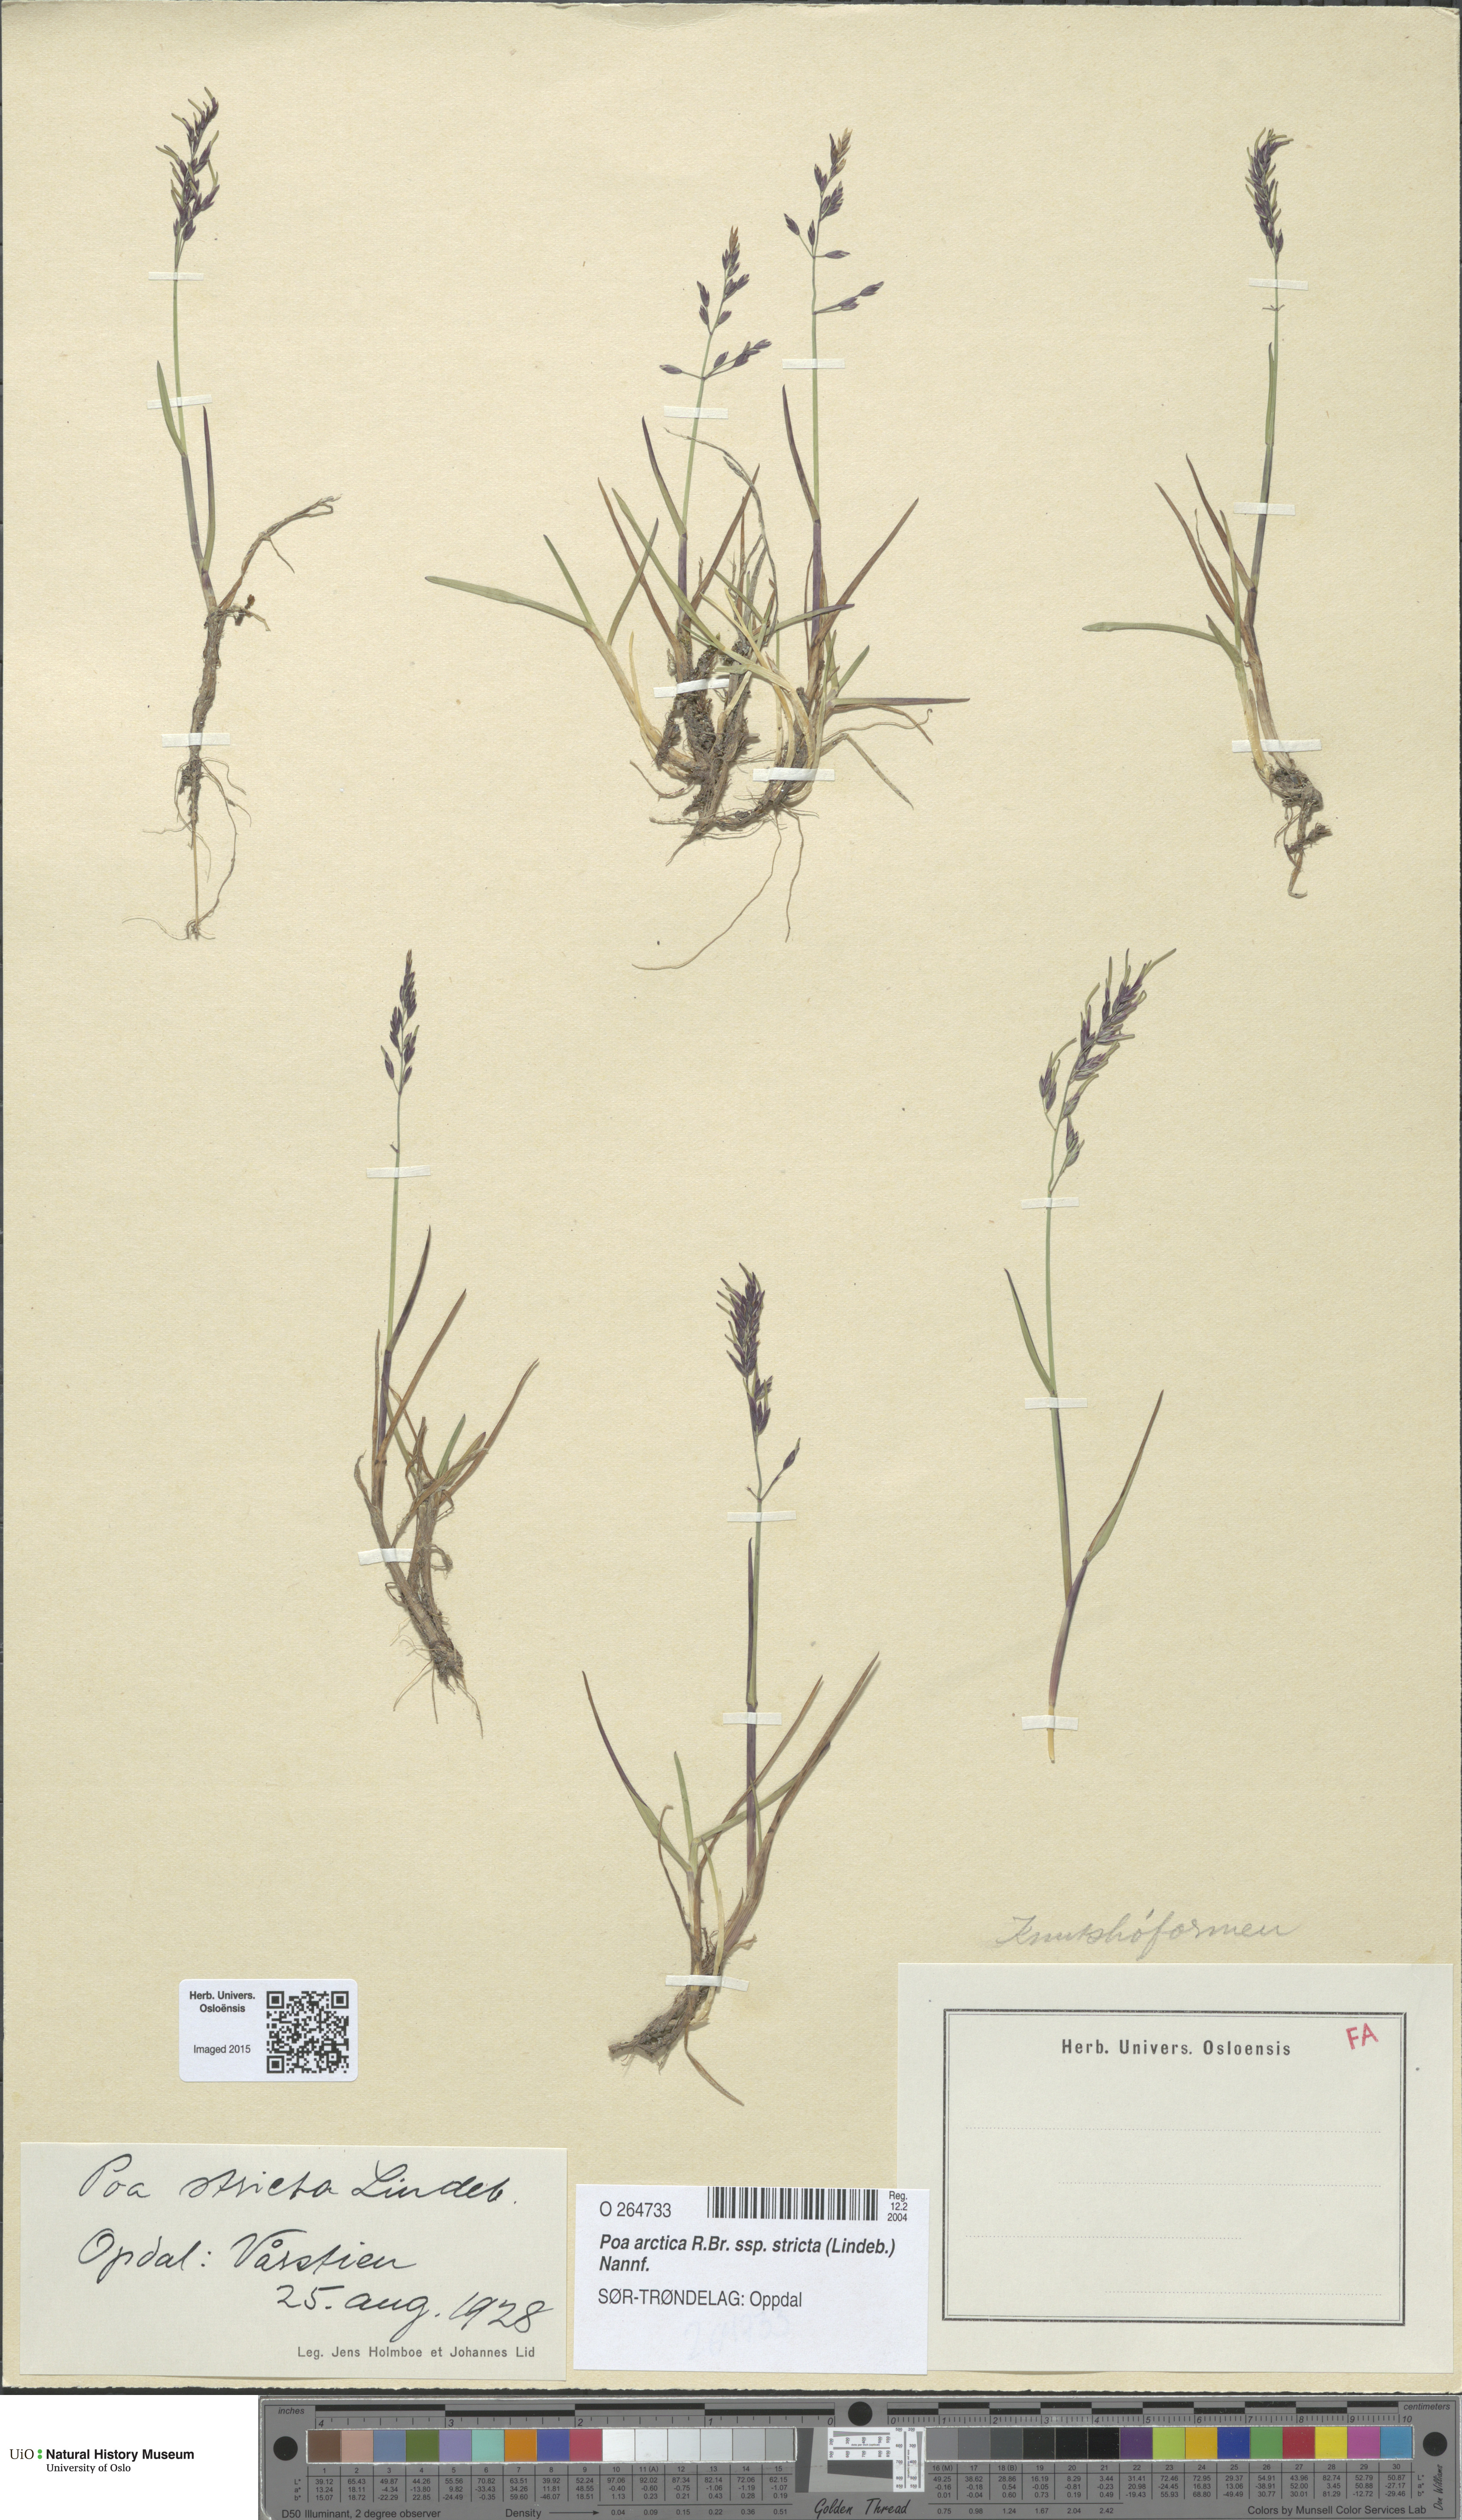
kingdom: Plantae
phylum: Tracheophyta
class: Liliopsida
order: Poales
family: Poaceae
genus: Poa
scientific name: Poa lindebergii
